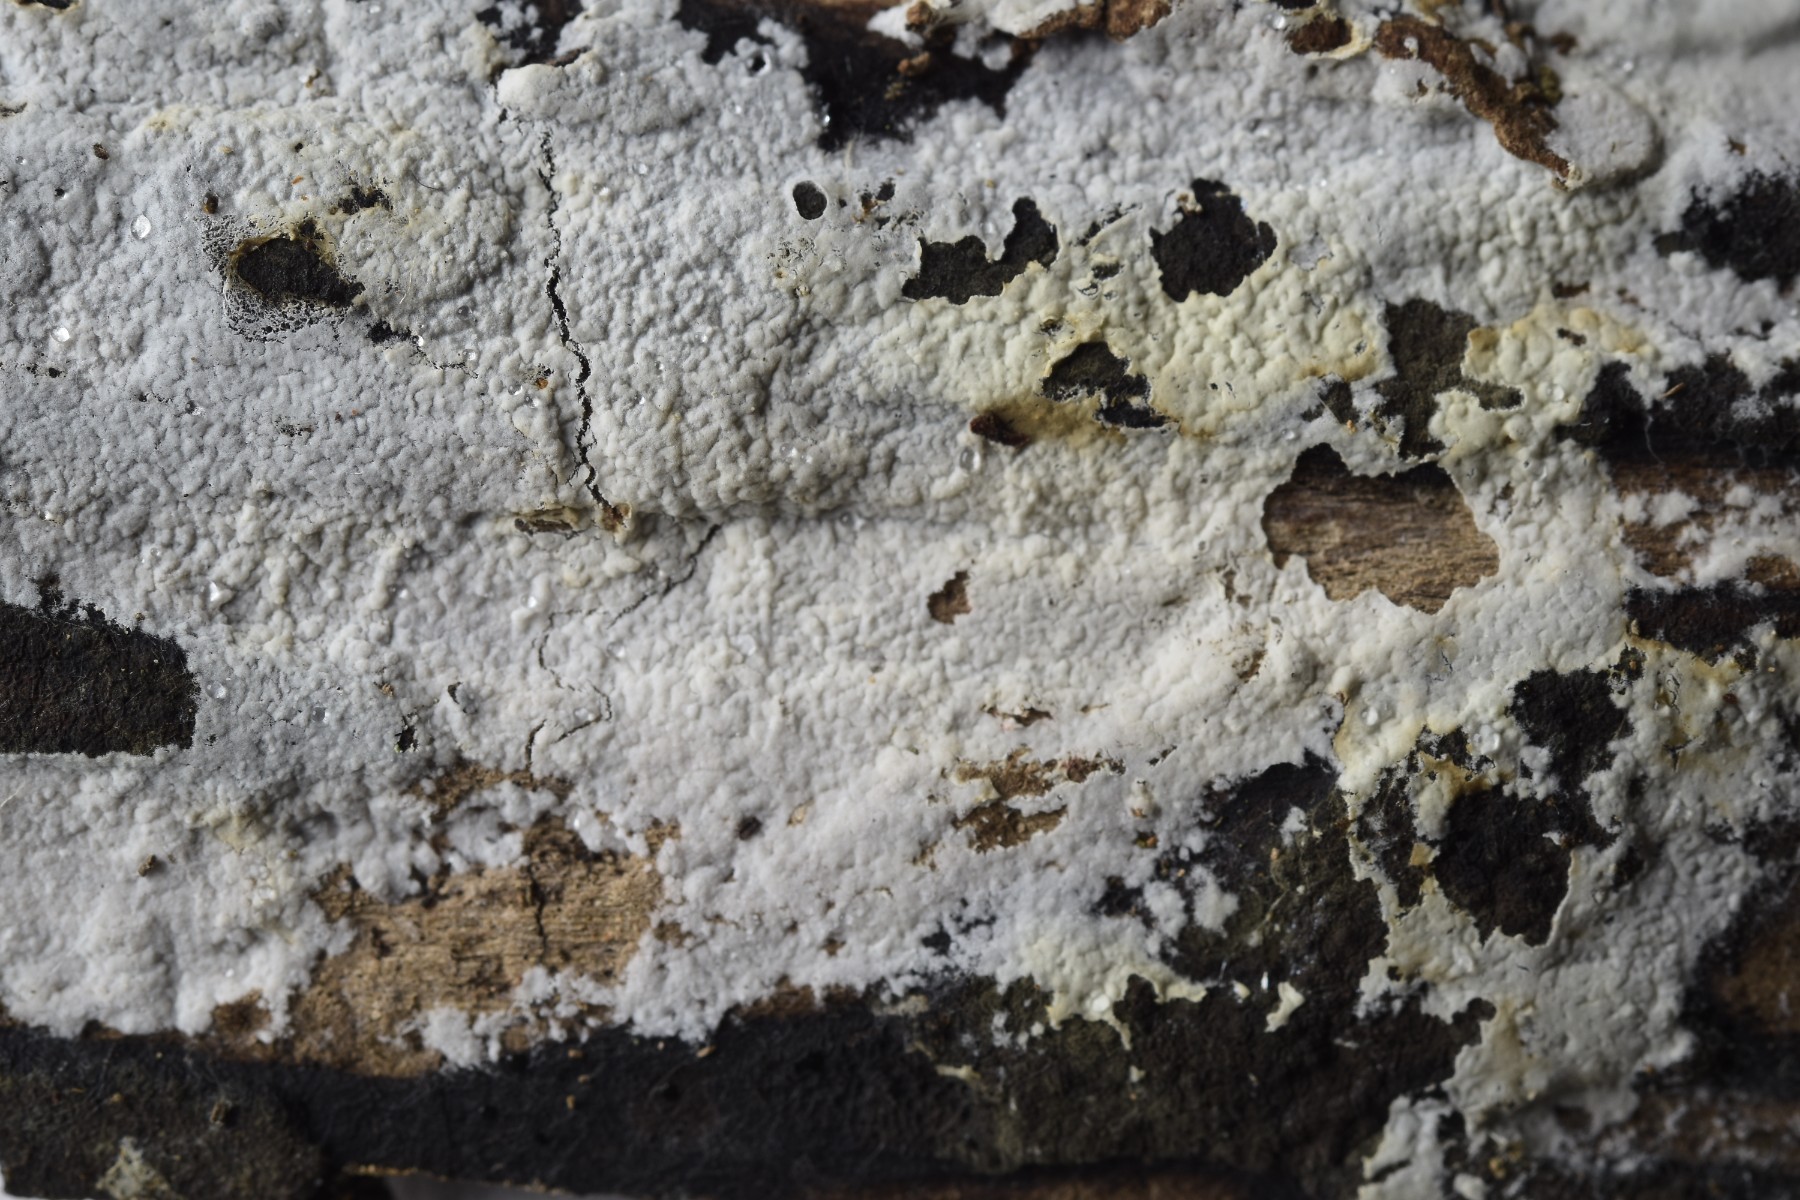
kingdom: Fungi
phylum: Basidiomycota
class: Agaricomycetes
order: Atheliales
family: Atheliaceae
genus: Athelia
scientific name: Athelia epiphylla
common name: almindelig barkhinde
